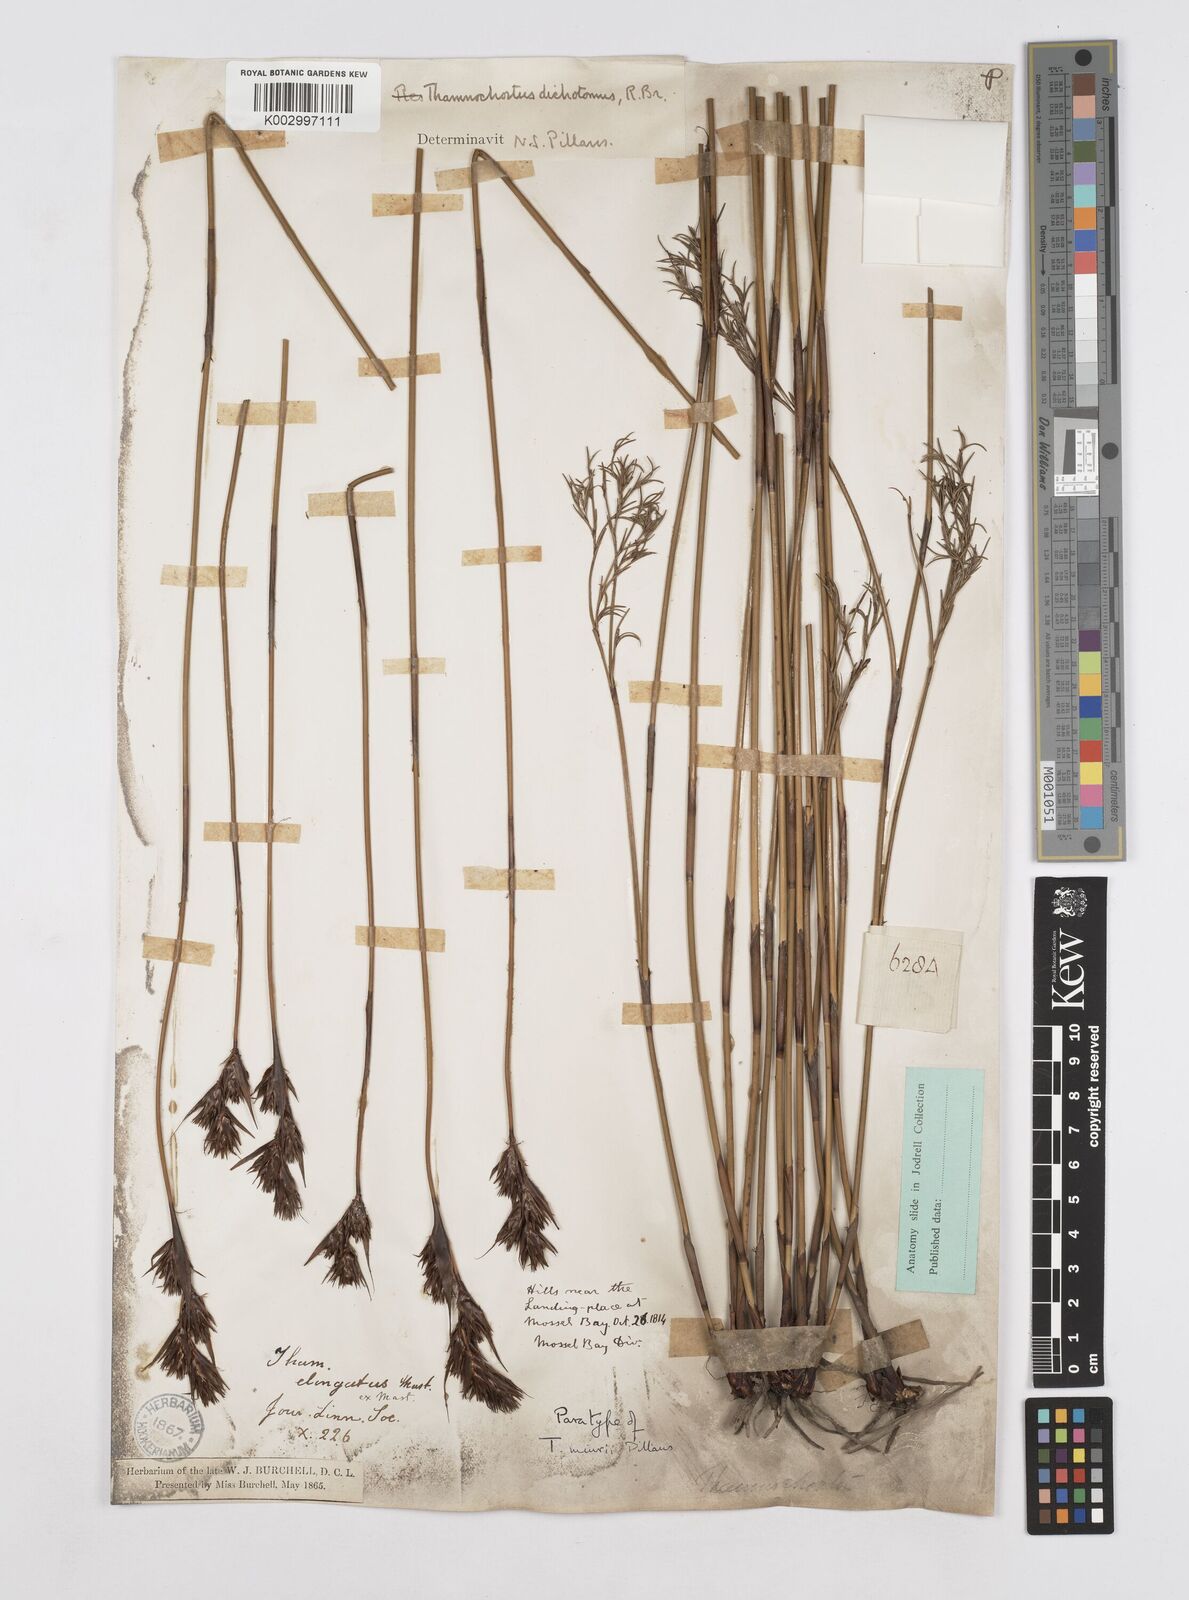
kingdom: Plantae
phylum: Tracheophyta
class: Liliopsida
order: Poales
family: Restionaceae
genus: Thamnochortus
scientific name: Thamnochortus muirii
